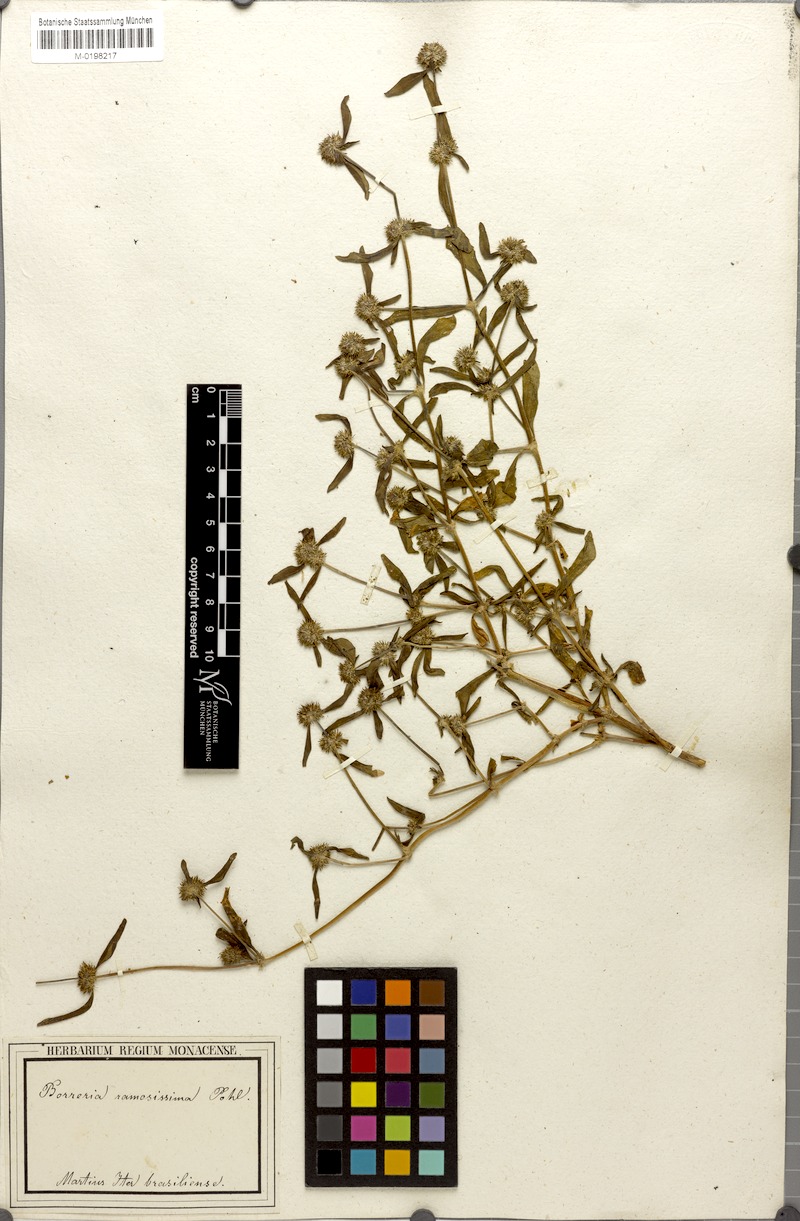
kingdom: Plantae
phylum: Tracheophyta
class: Magnoliopsida
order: Gentianales
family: Rubiaceae
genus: Mitracarpus
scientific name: Mitracarpus hirtus
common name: Tropical girdlepod
